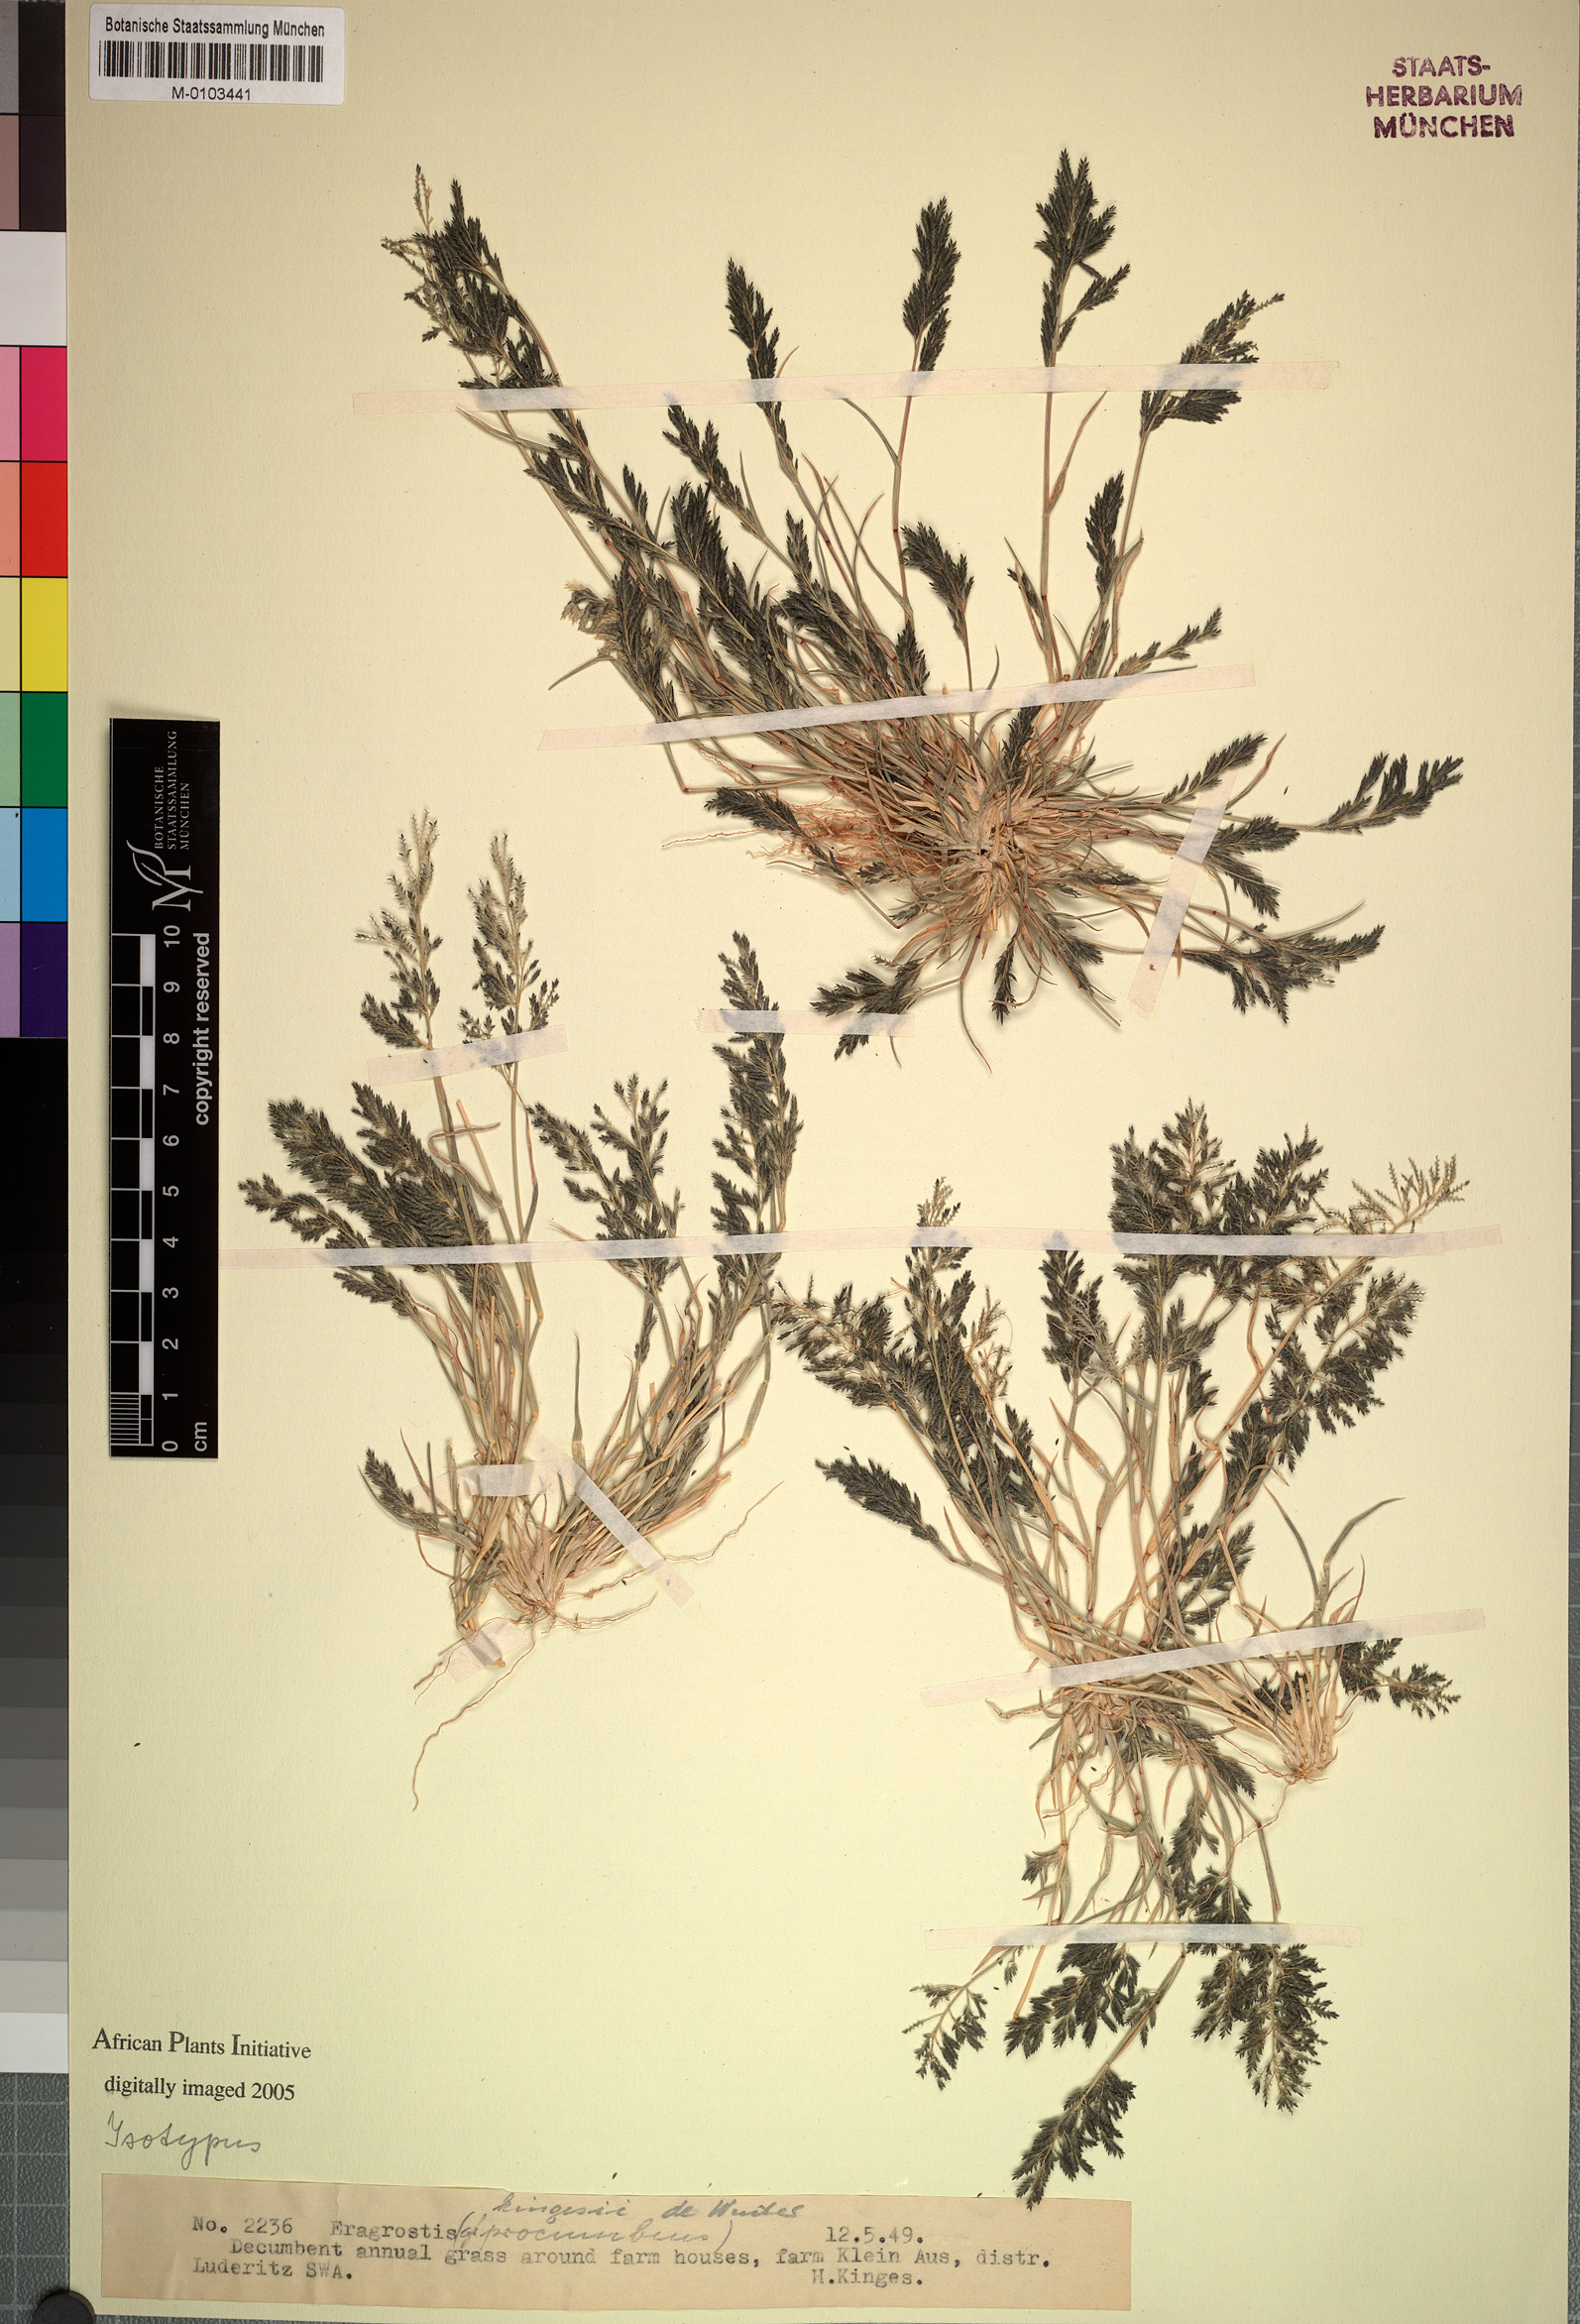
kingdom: Plantae
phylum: Tracheophyta
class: Liliopsida
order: Poales
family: Poaceae
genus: Eragrostis
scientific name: Eragrostis kingesii
